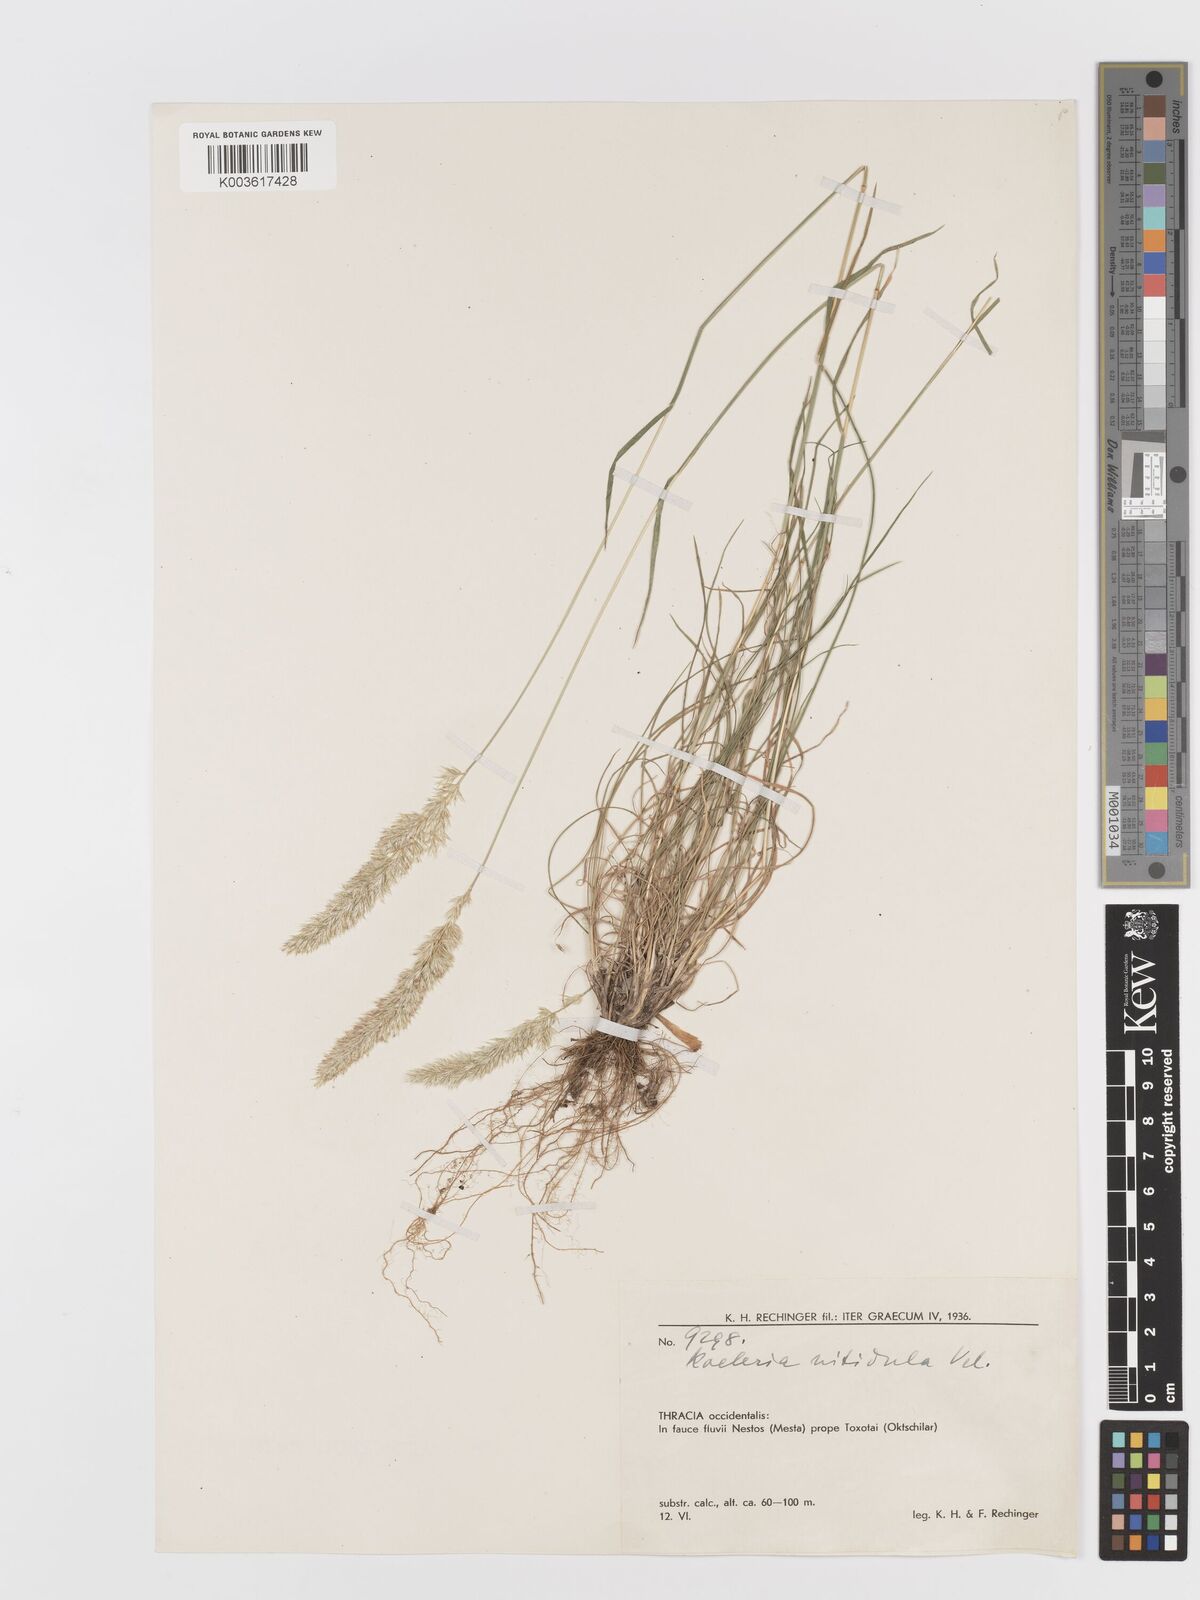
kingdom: Plantae
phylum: Tracheophyta
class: Liliopsida
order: Poales
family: Poaceae
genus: Koeleria
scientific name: Koeleria nitidula
